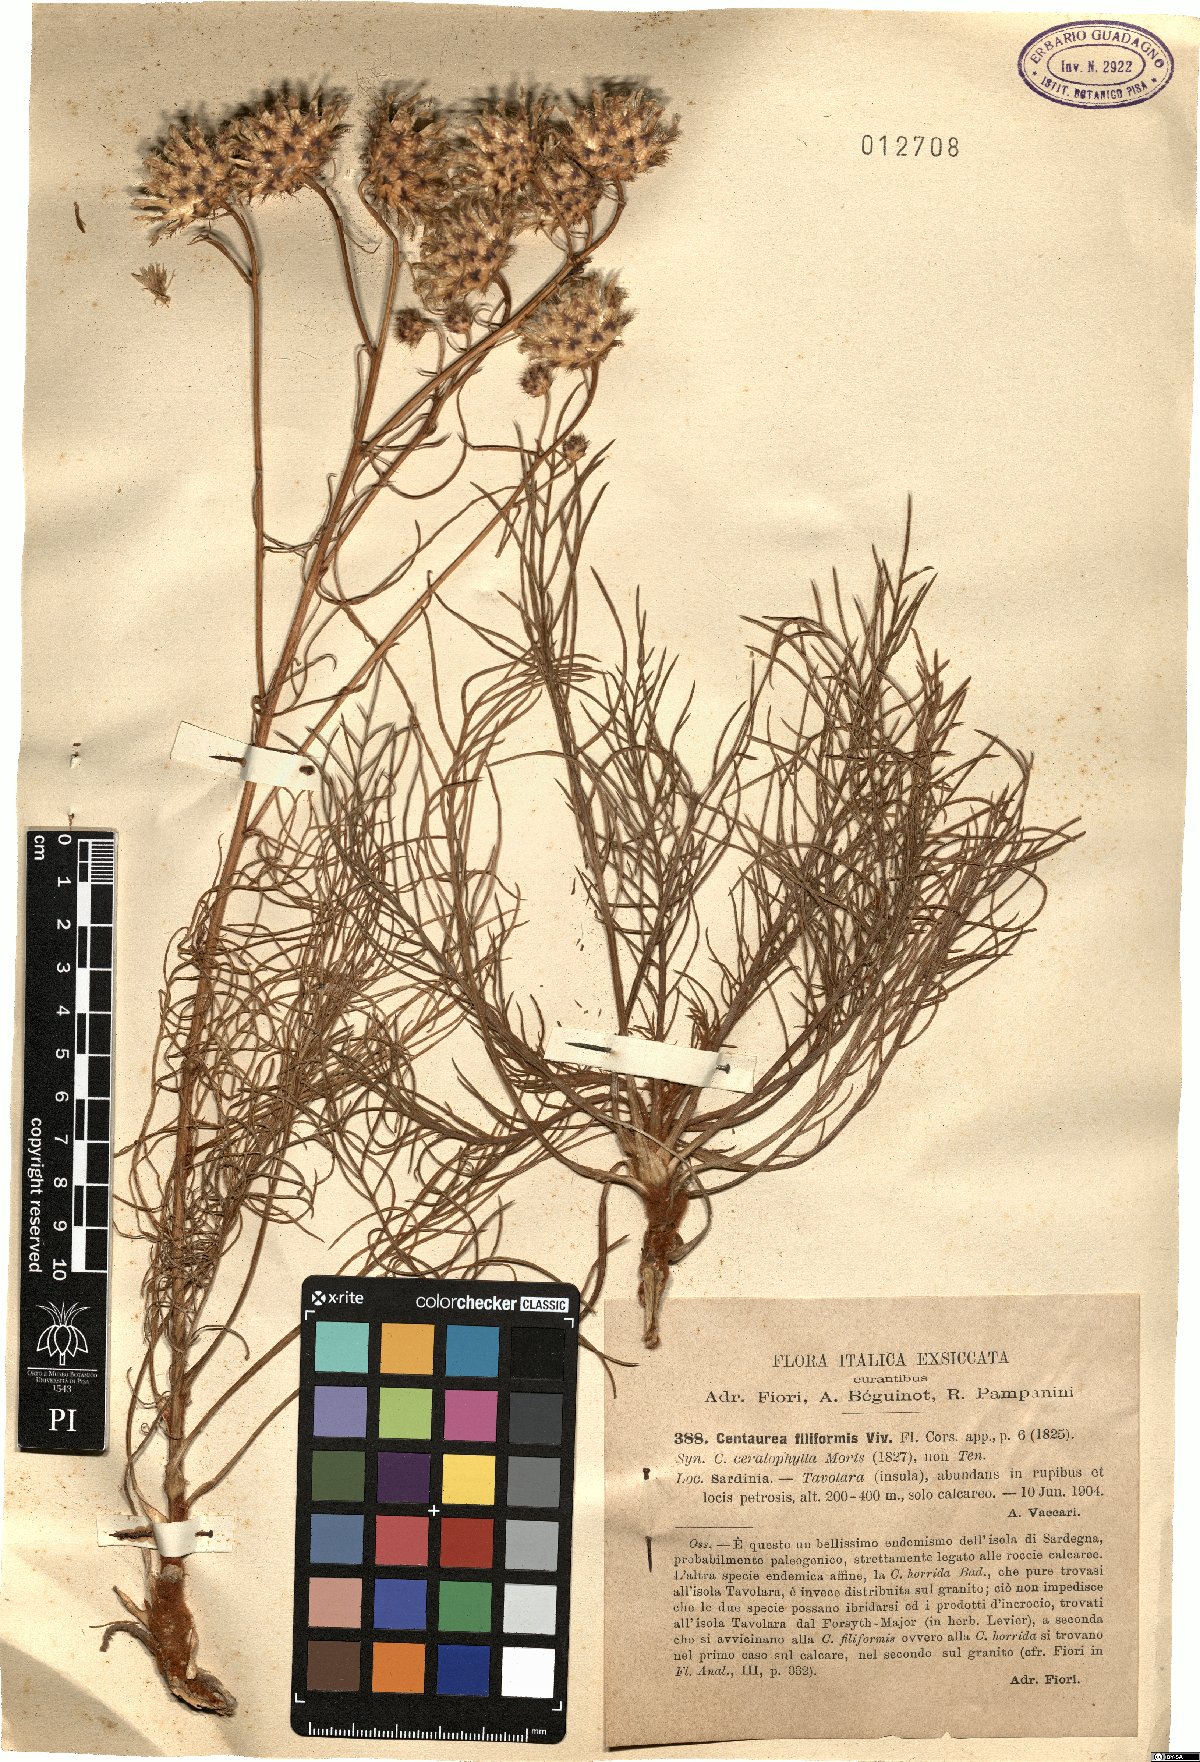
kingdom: Plantae
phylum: Tracheophyta
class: Magnoliopsida
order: Asterales
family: Asteraceae
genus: Centaurea
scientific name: Centaurea filiformis
